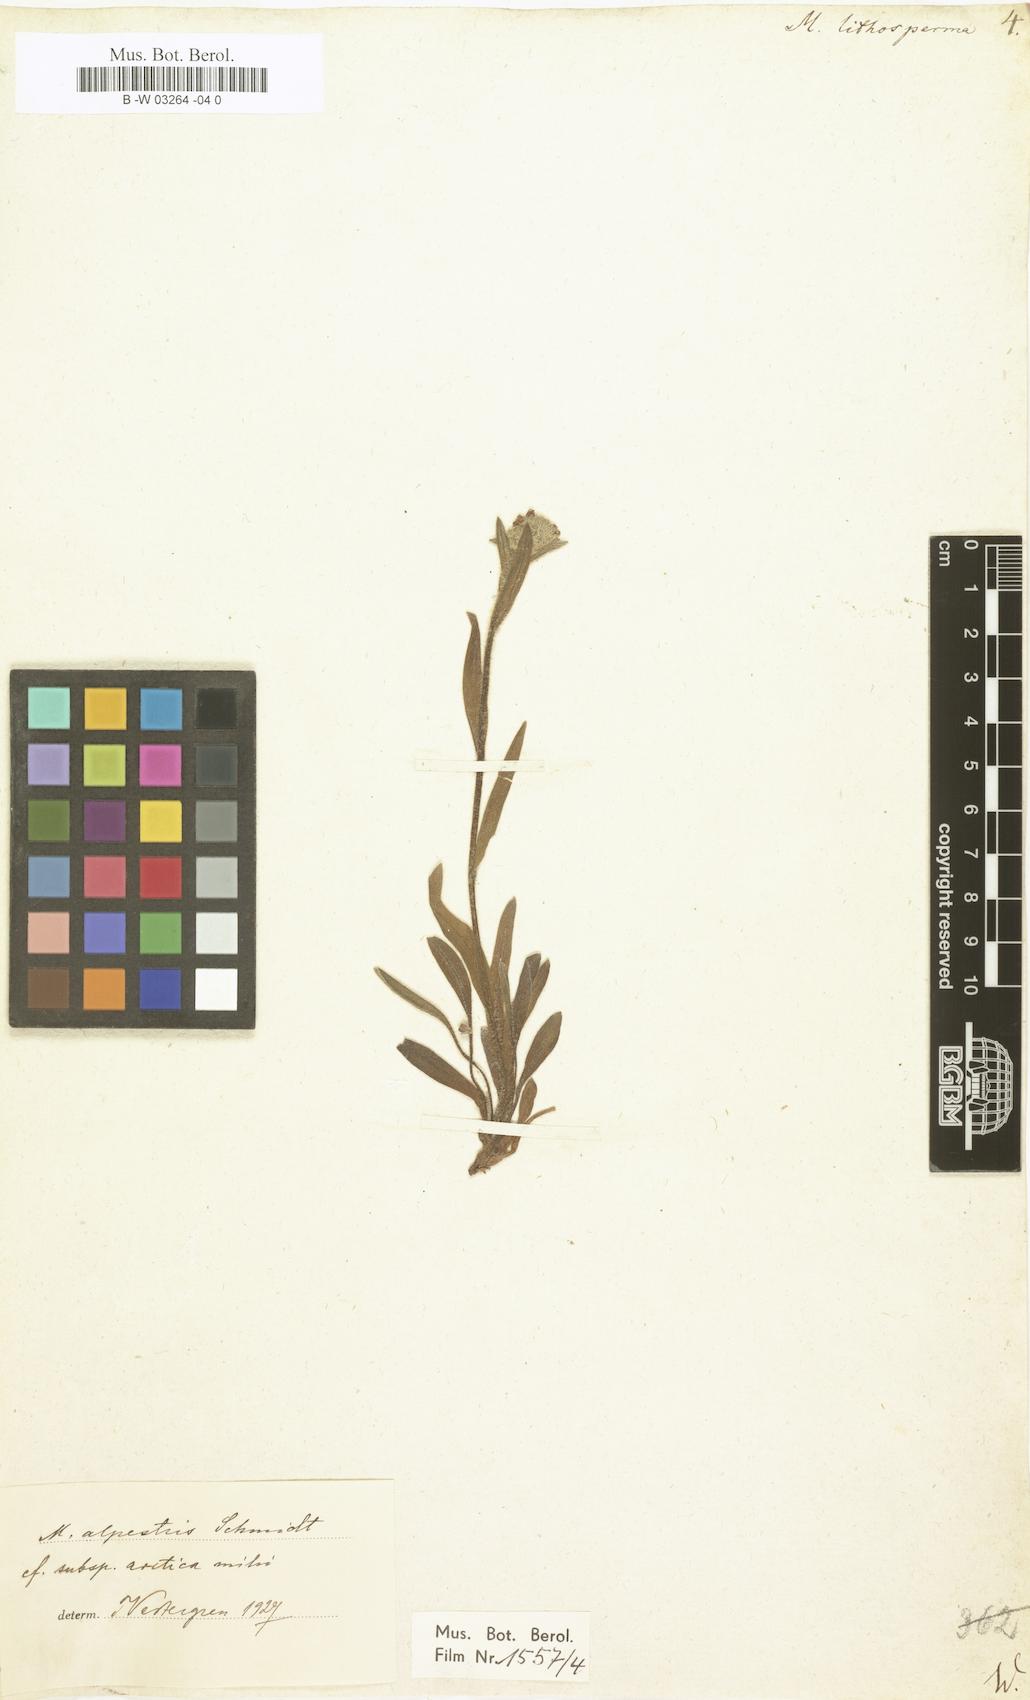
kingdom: Plantae
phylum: Tracheophyta
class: Magnoliopsida
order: Boraginales
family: Boraginaceae
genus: Myosotis
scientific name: Myosotis
